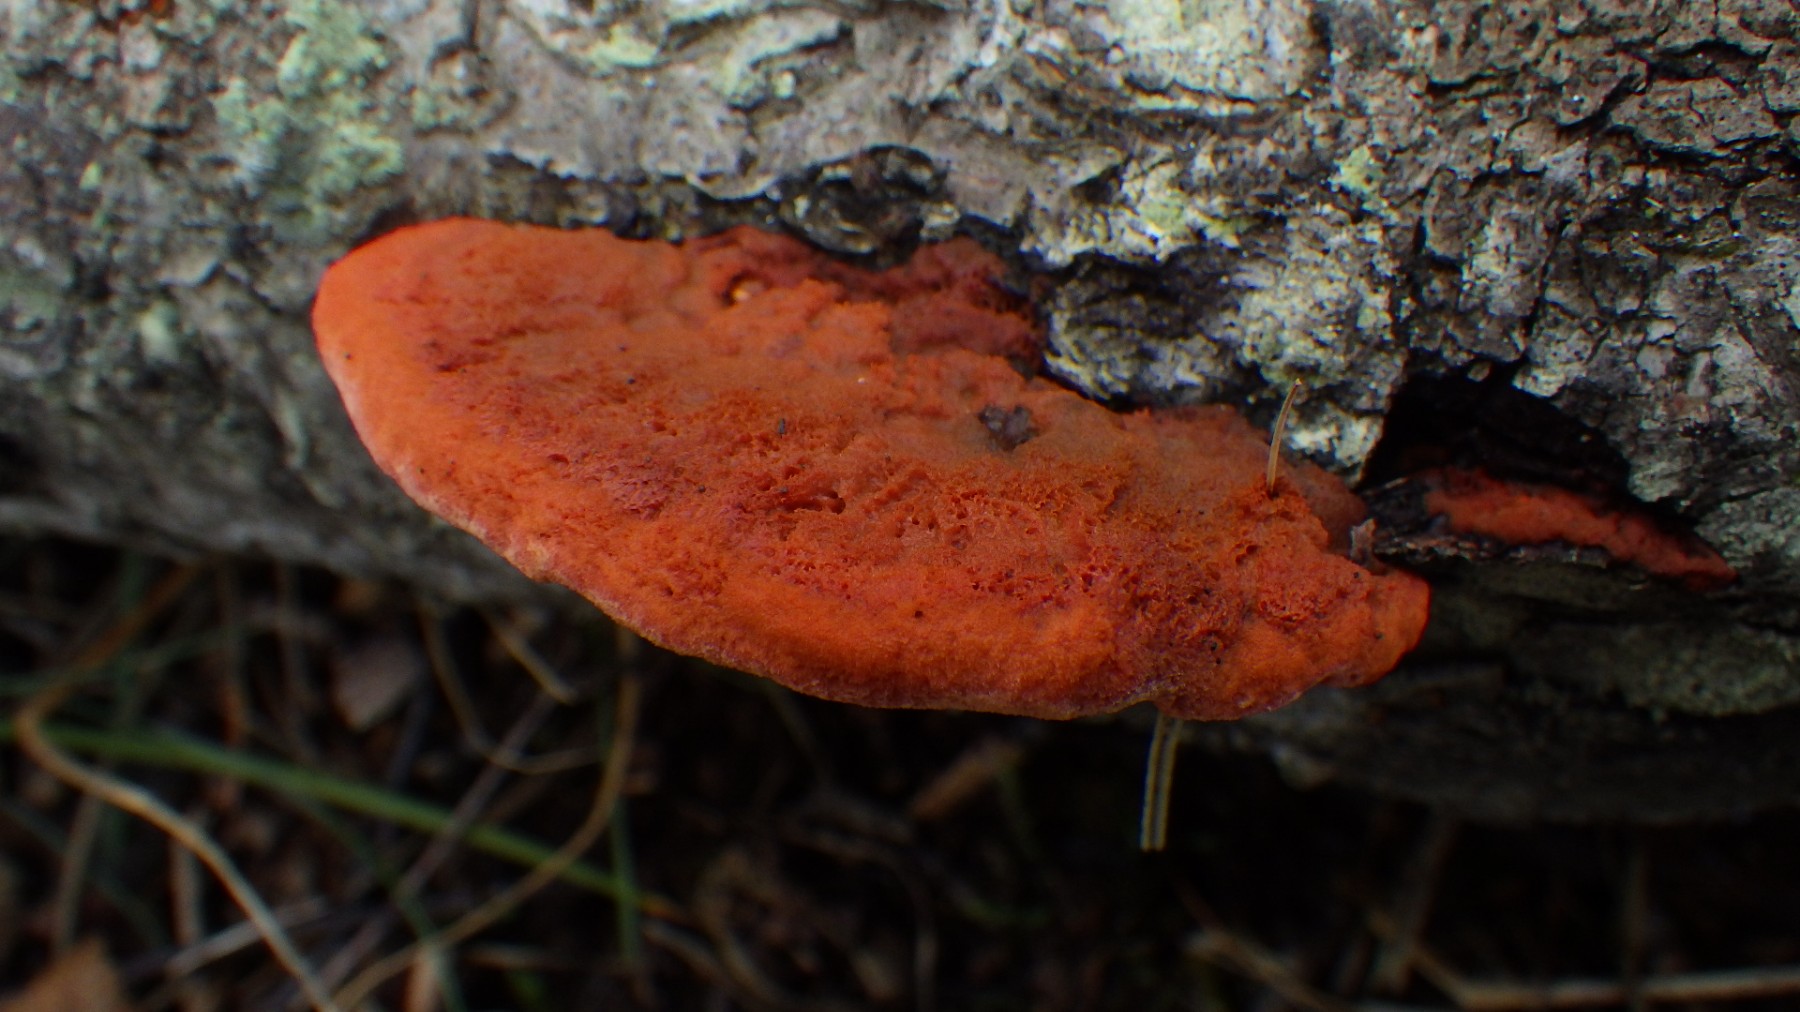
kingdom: Fungi
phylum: Basidiomycota
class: Agaricomycetes
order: Polyporales
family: Polyporaceae
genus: Trametes
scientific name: Trametes cinnabarina
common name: cinnoberporesvamp
